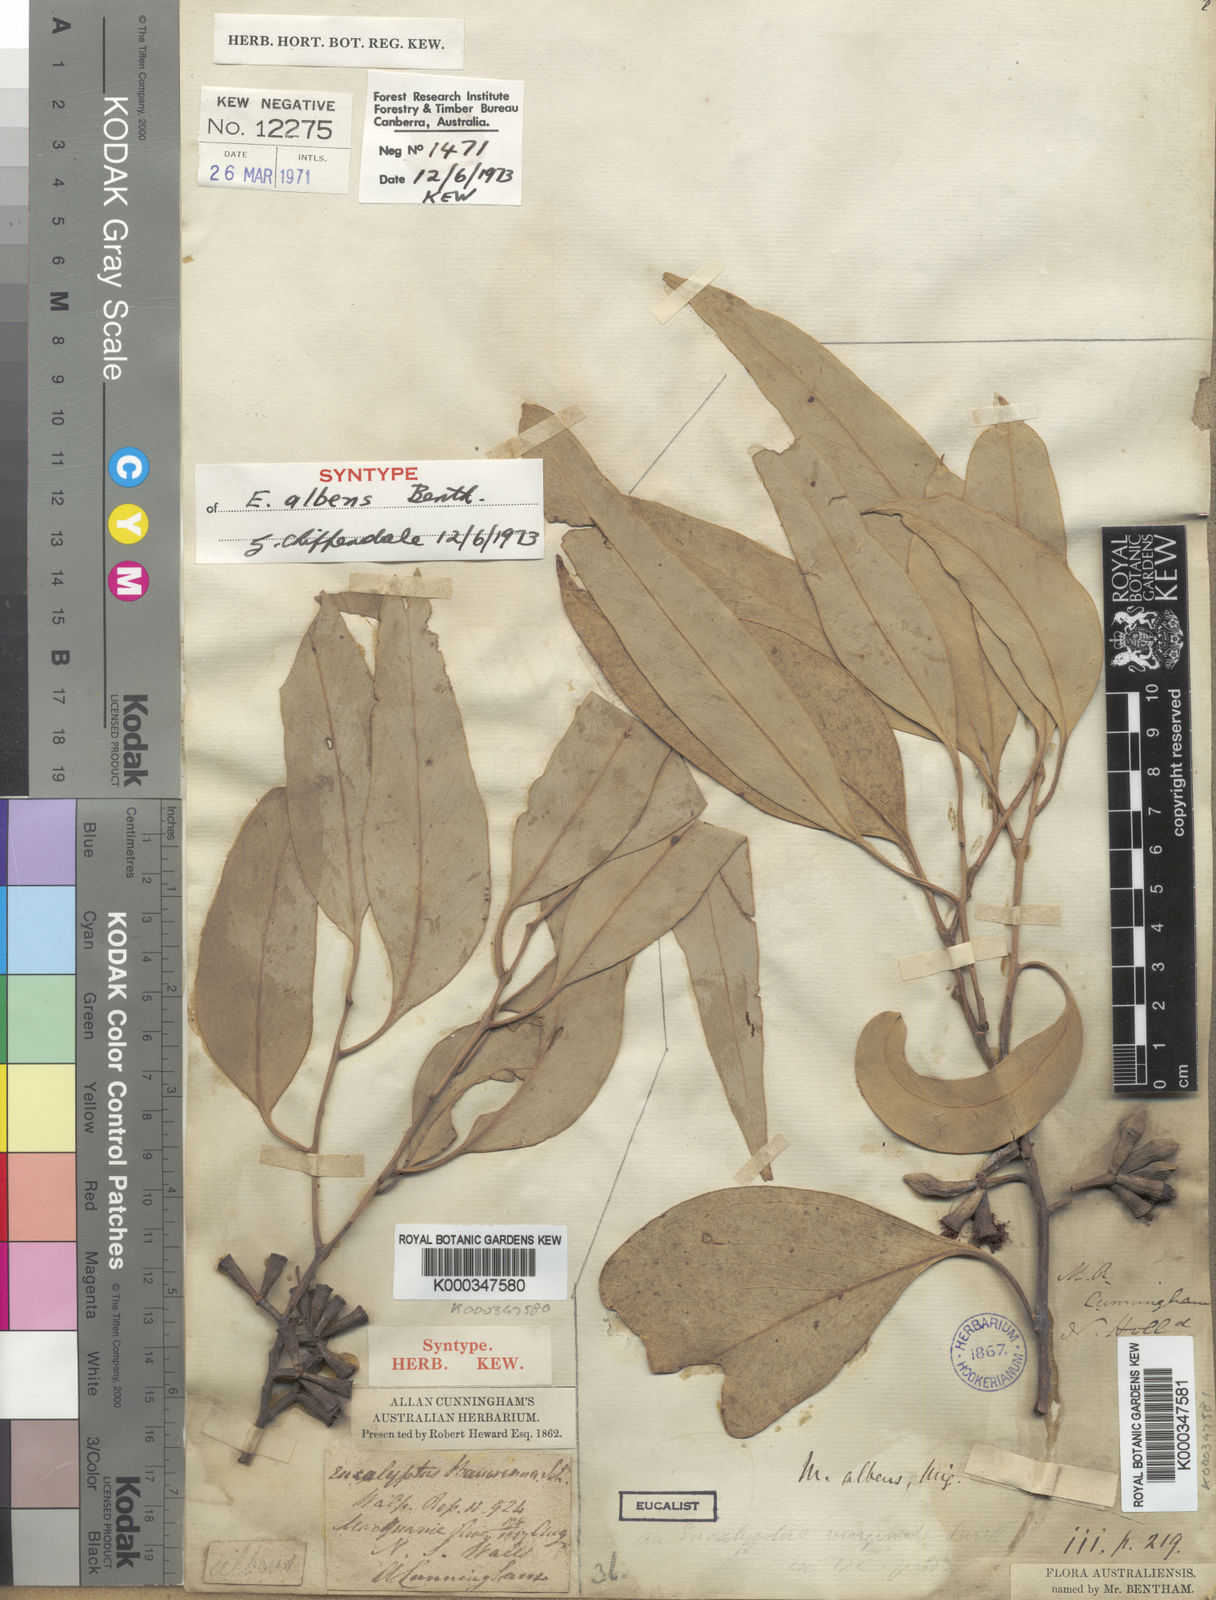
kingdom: Plantae
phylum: Tracheophyta
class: Magnoliopsida
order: Myrtales
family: Myrtaceae
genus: Eucalyptus
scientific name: Eucalyptus albens
